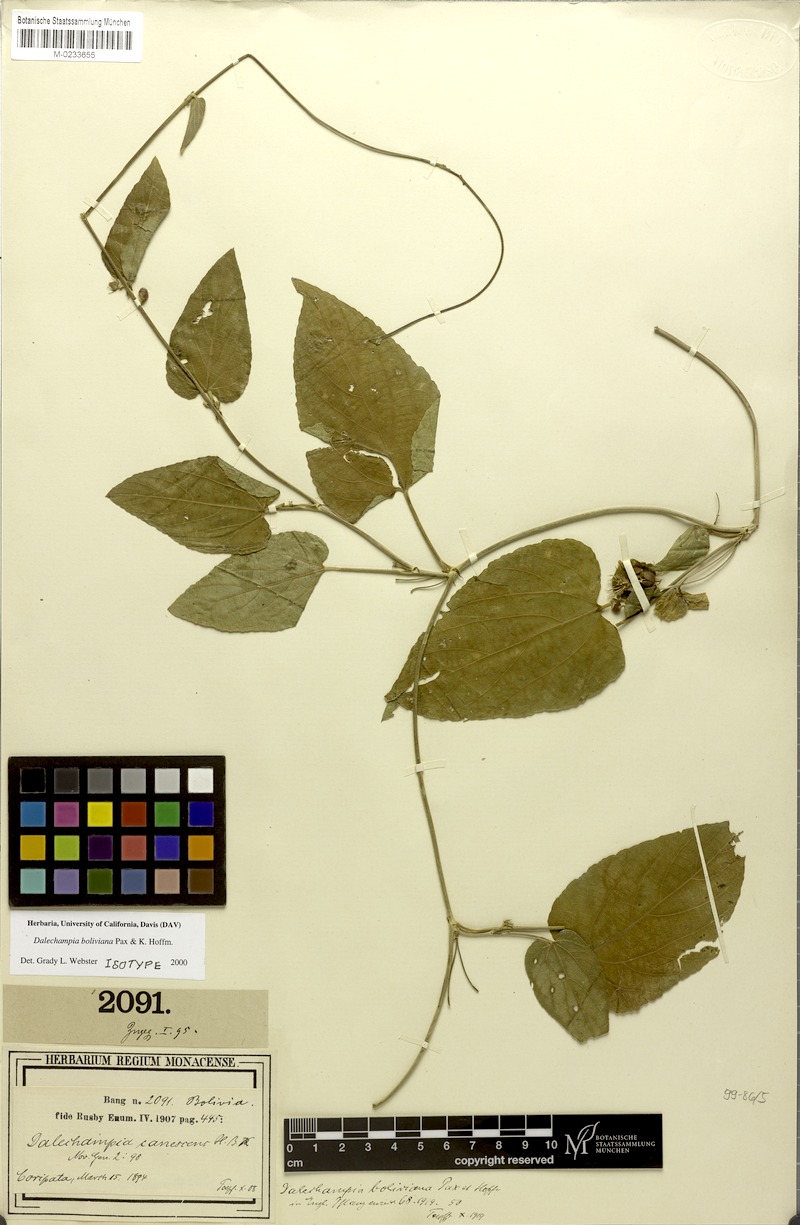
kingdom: Plantae
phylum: Tracheophyta
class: Magnoliopsida
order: Malpighiales
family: Euphorbiaceae
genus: Dalechampia
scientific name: Dalechampia boliviana
